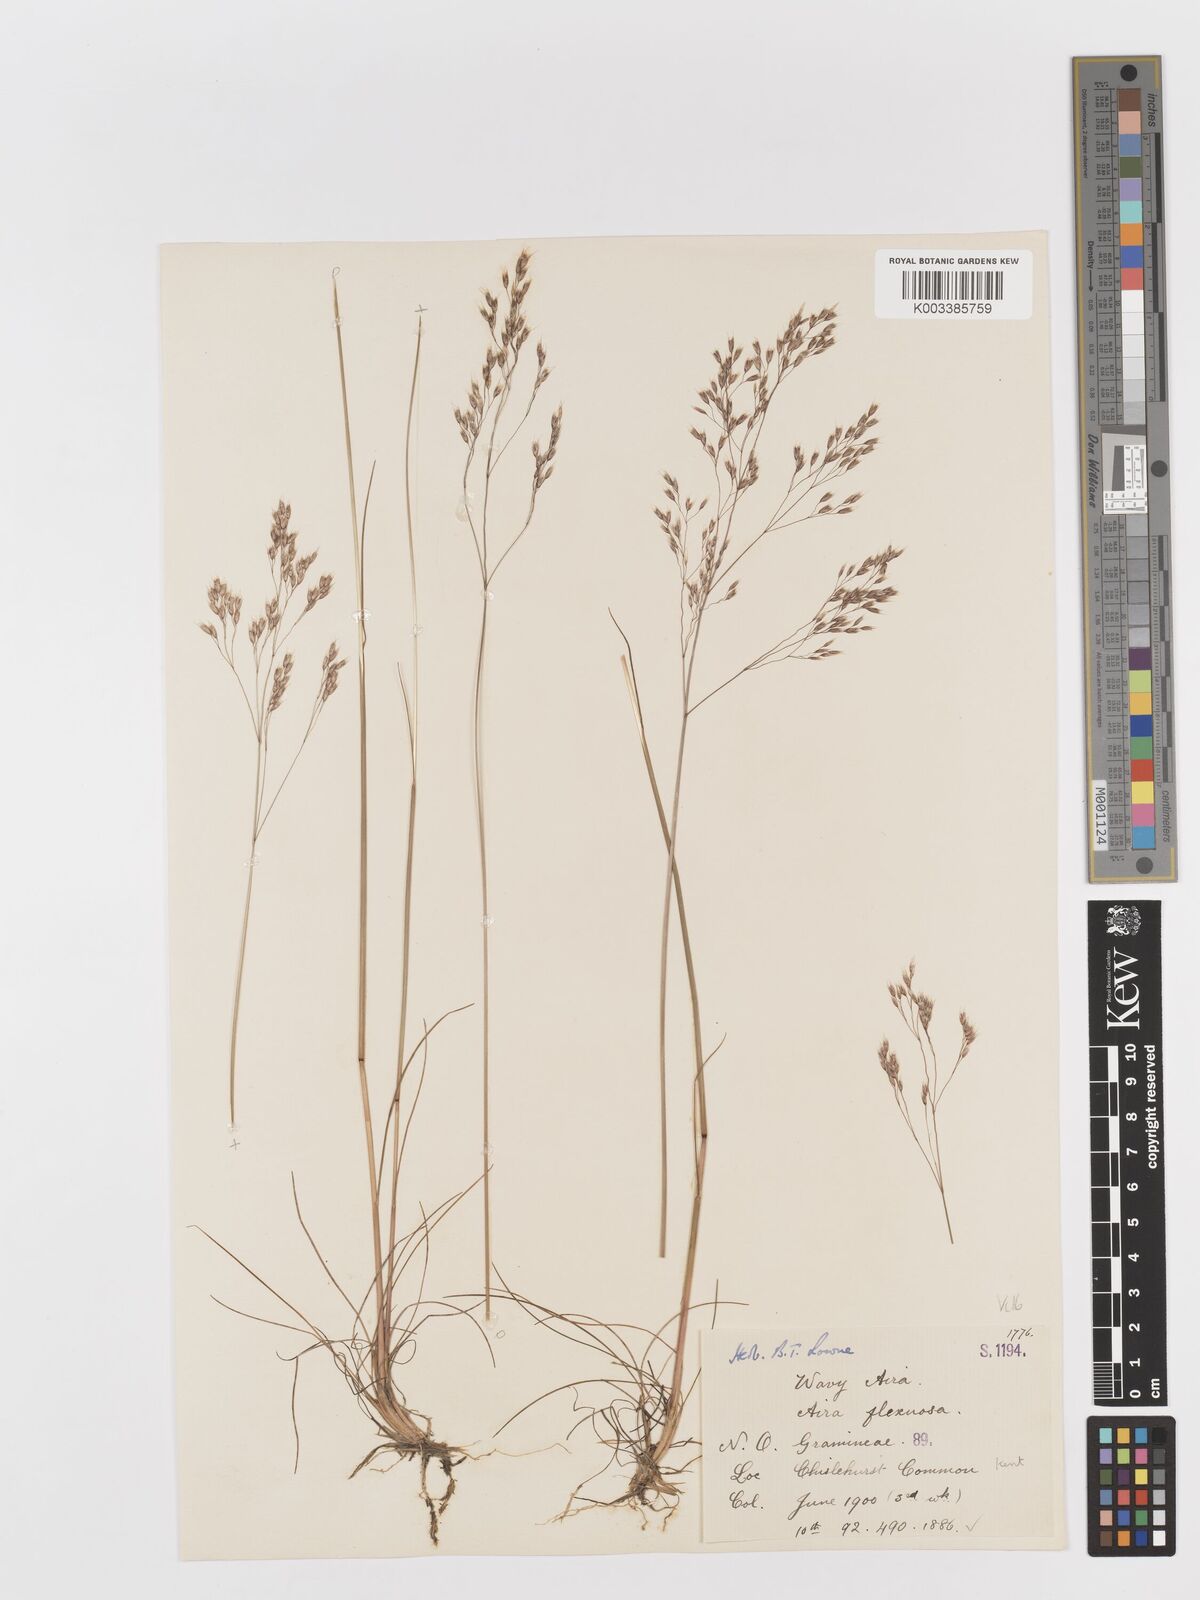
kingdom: Plantae
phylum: Tracheophyta
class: Liliopsida
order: Poales
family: Poaceae
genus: Avenella
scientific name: Avenella flexuosa
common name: Wavy hairgrass
